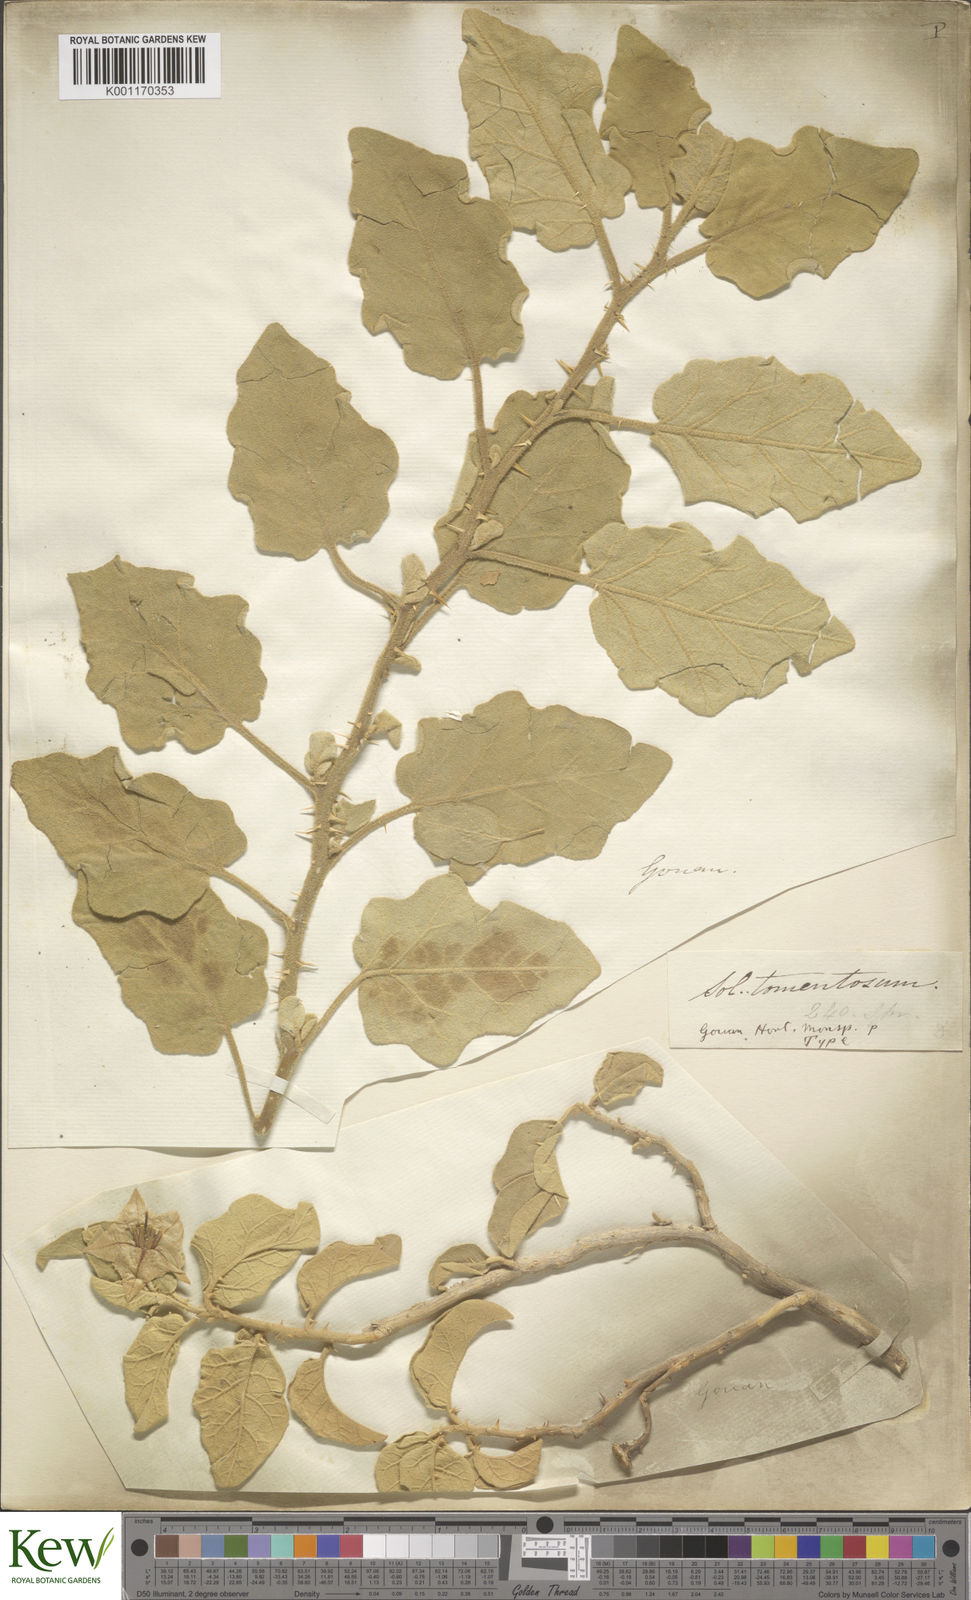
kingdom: Plantae
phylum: Tracheophyta
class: Magnoliopsida
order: Solanales
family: Solanaceae
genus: Solanum
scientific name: Solanum tomentosum
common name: Wild aubergine
